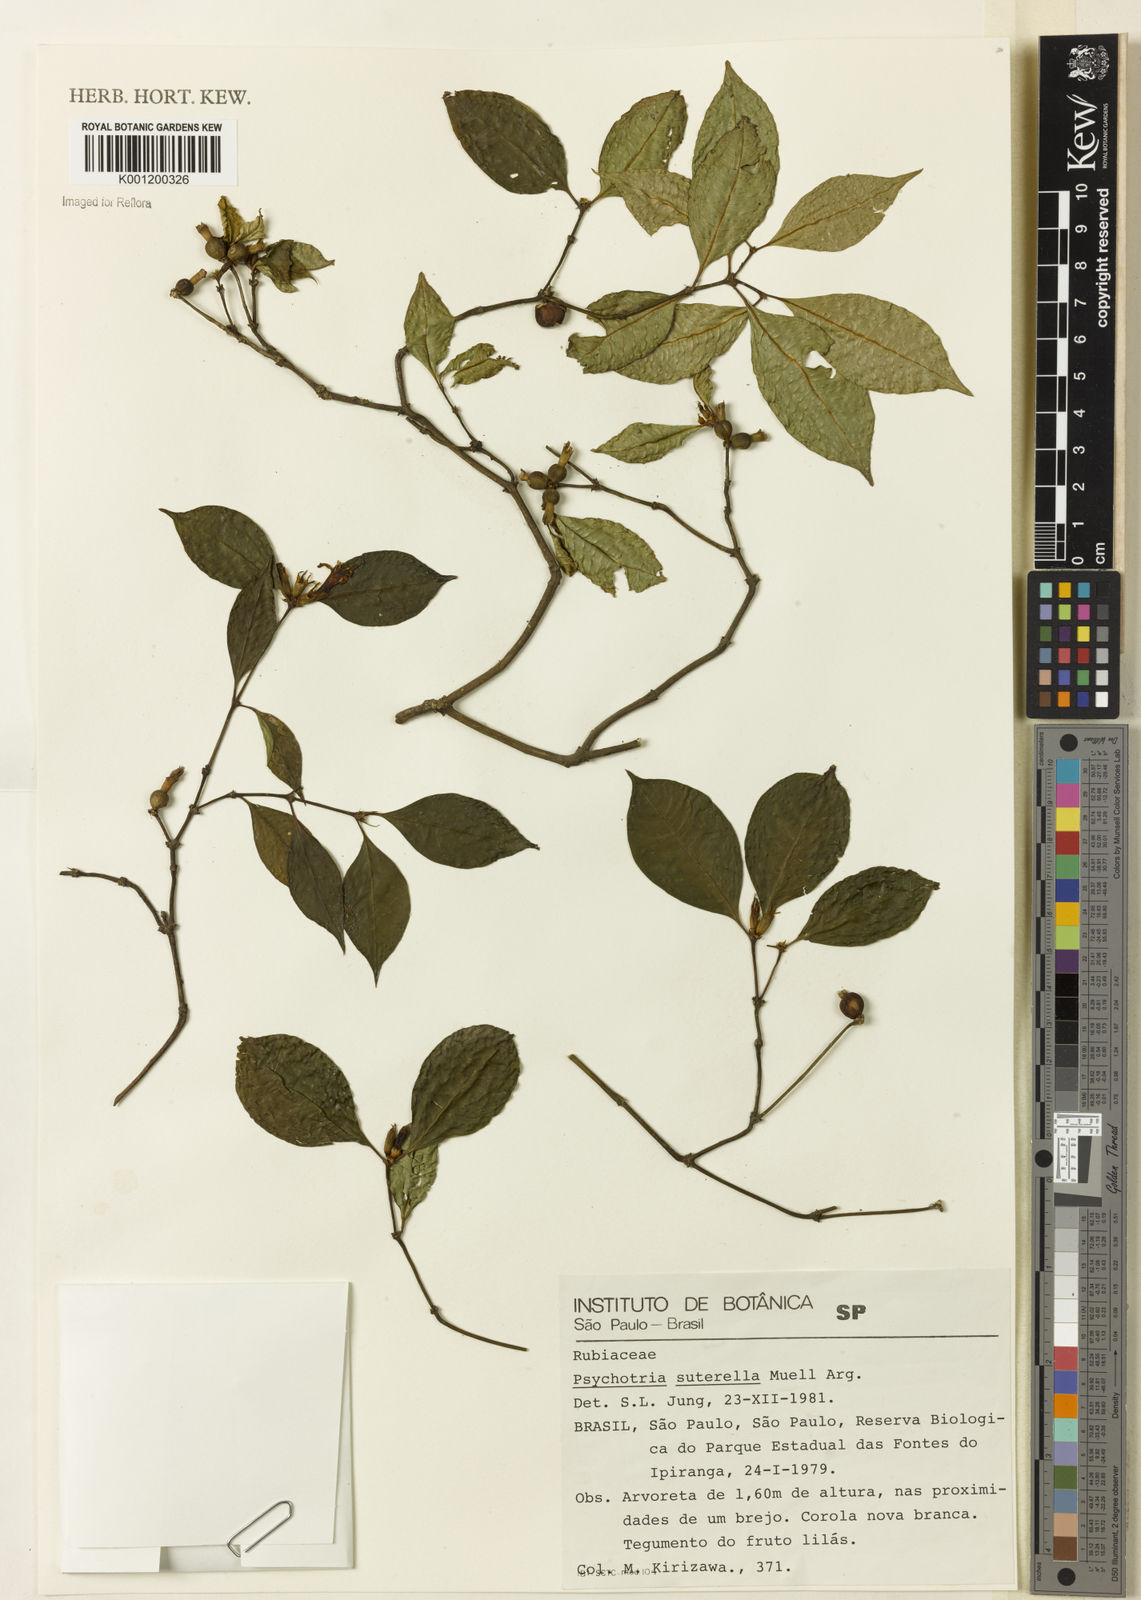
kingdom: Plantae
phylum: Tracheophyta
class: Magnoliopsida
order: Gentianales
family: Rubiaceae
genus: Psychotria
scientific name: Psychotria
